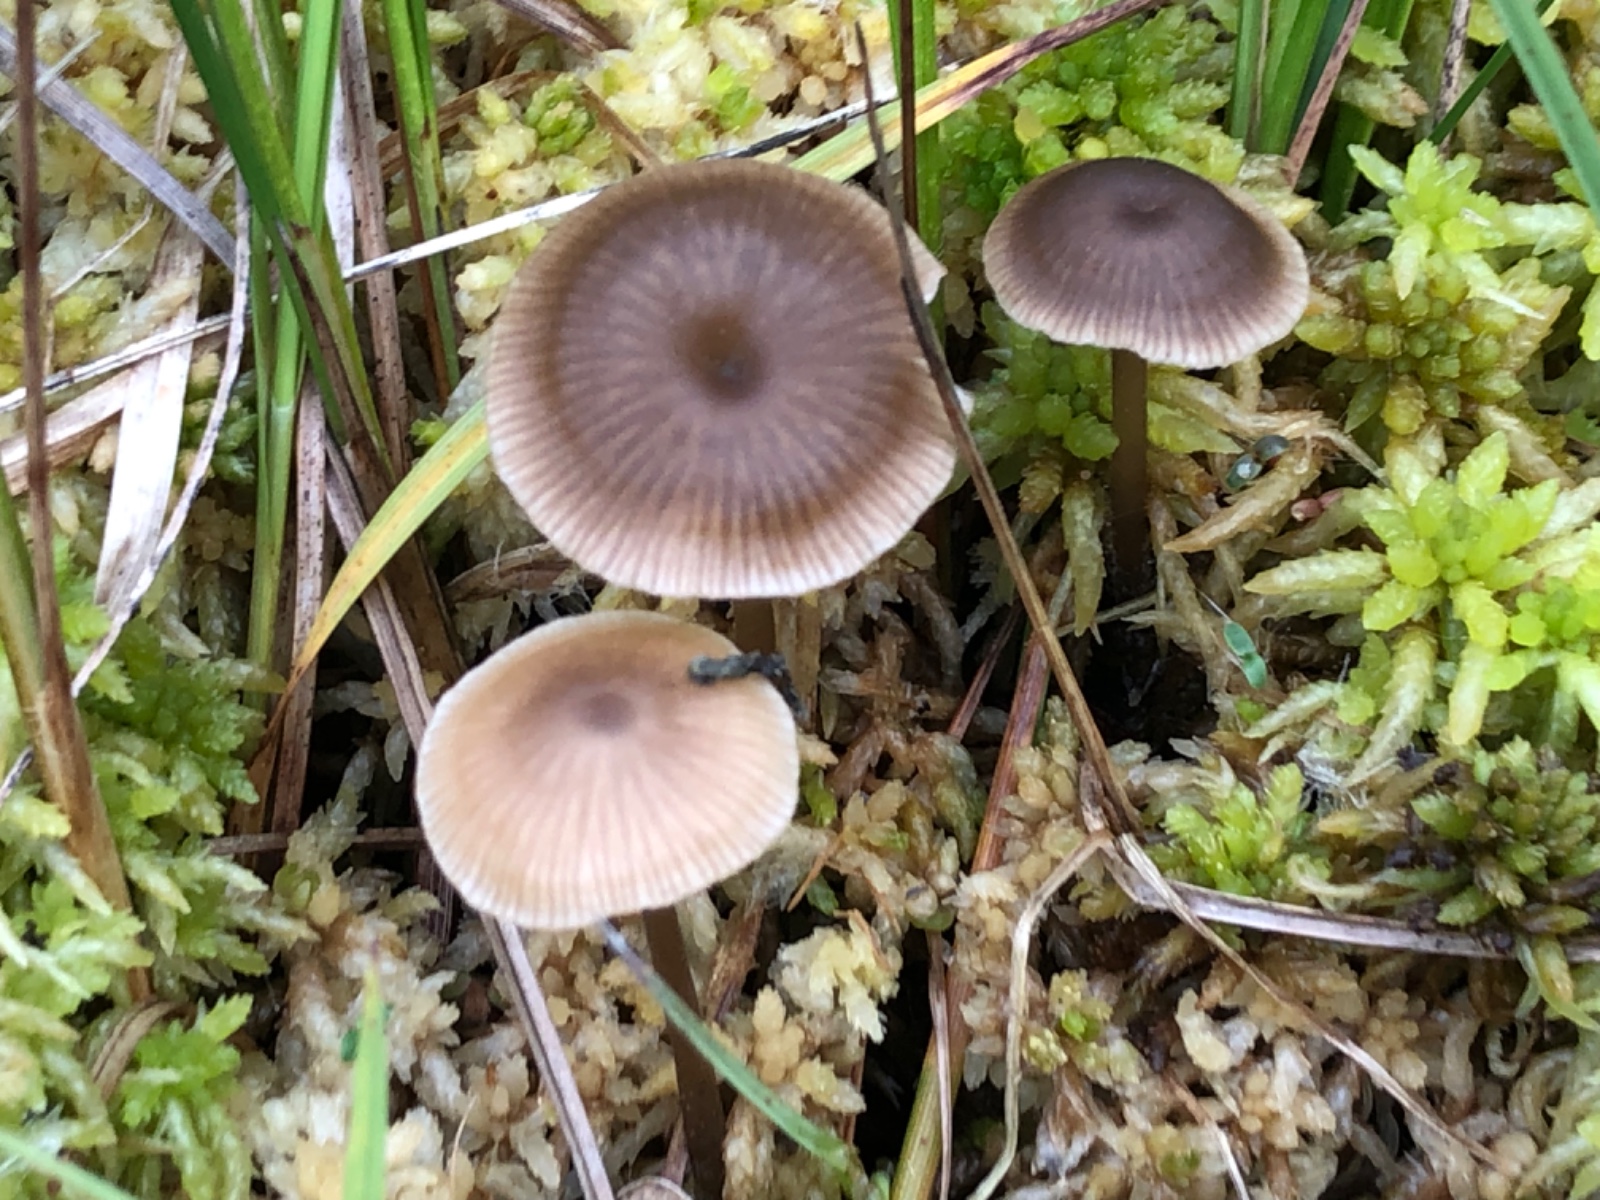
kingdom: Fungi
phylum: Basidiomycota
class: Agaricomycetes
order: Agaricales
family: Lyophyllaceae
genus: Sphagnurus
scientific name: Sphagnurus paluster
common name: tørvemos-gråblad
